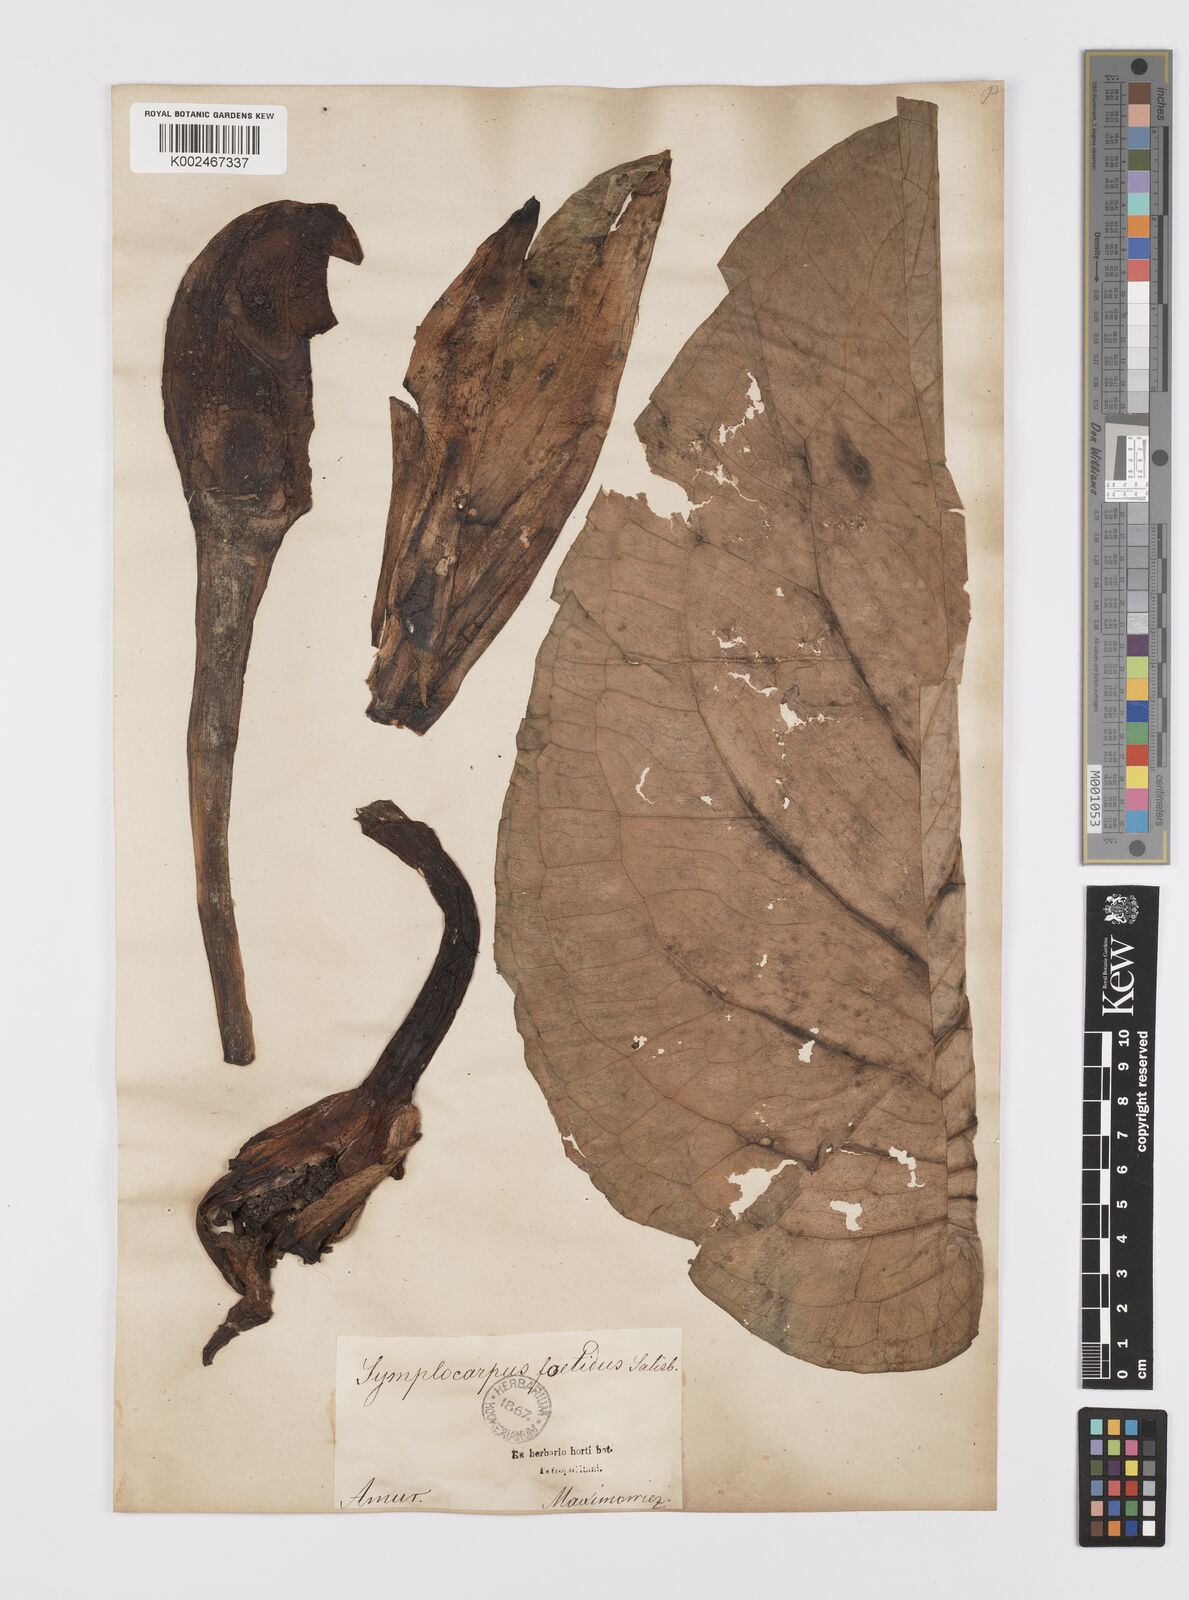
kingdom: Plantae
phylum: Tracheophyta
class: Liliopsida
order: Alismatales
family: Araceae
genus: Symplocarpus
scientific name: Symplocarpus renifolius
